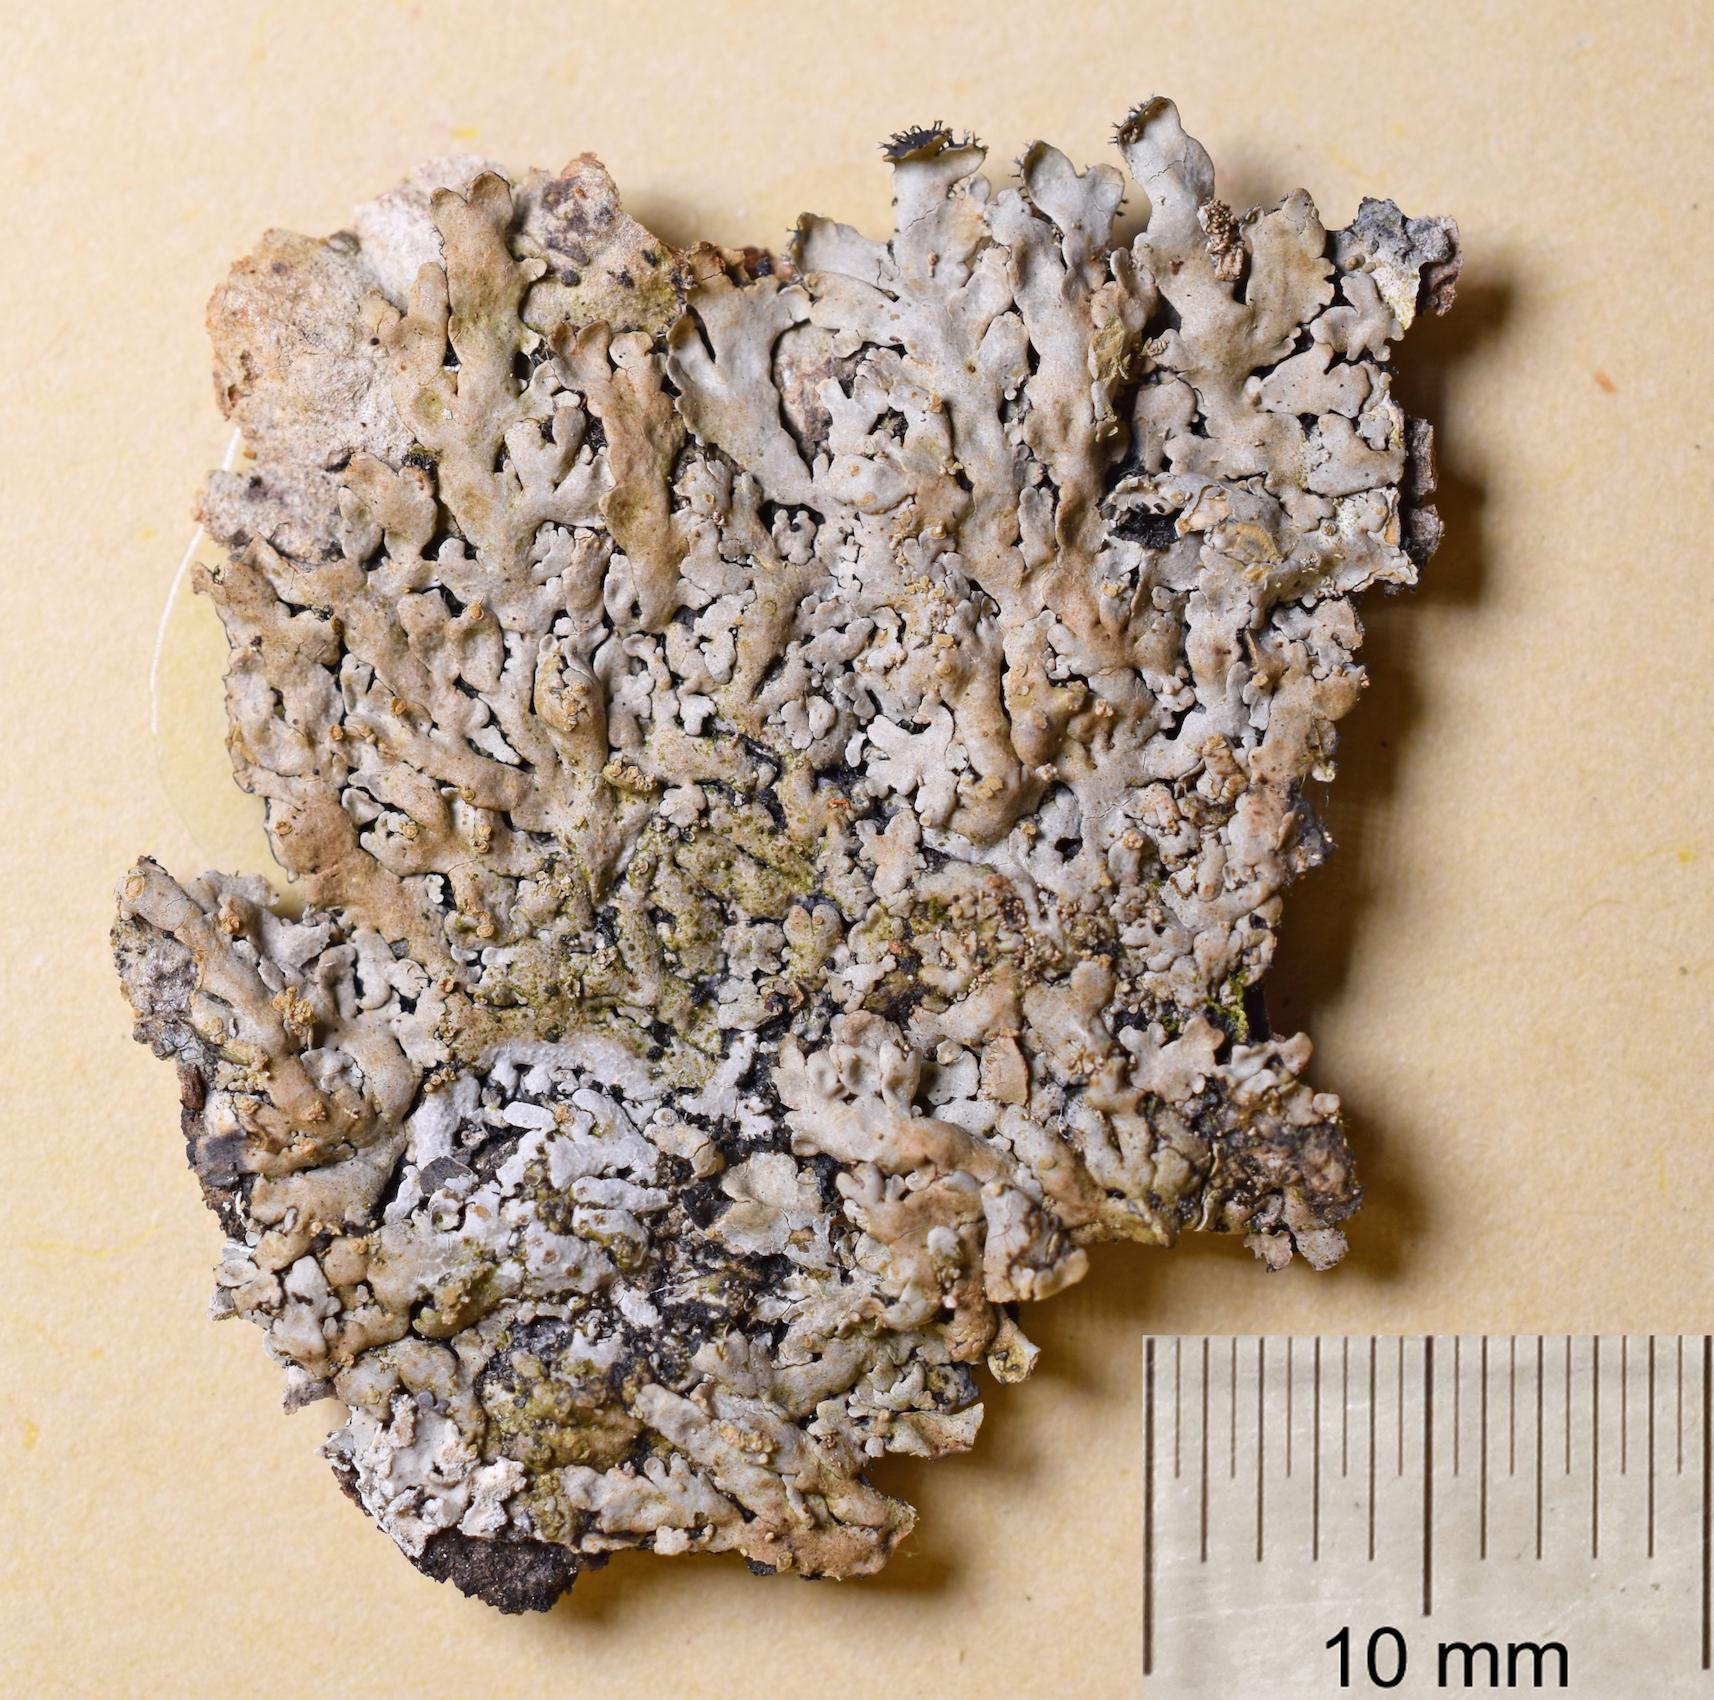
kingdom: Fungi
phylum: Ascomycota
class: Lecanoromycetes
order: Caliciales
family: Caliciaceae
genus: Pyxine
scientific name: Pyxine
